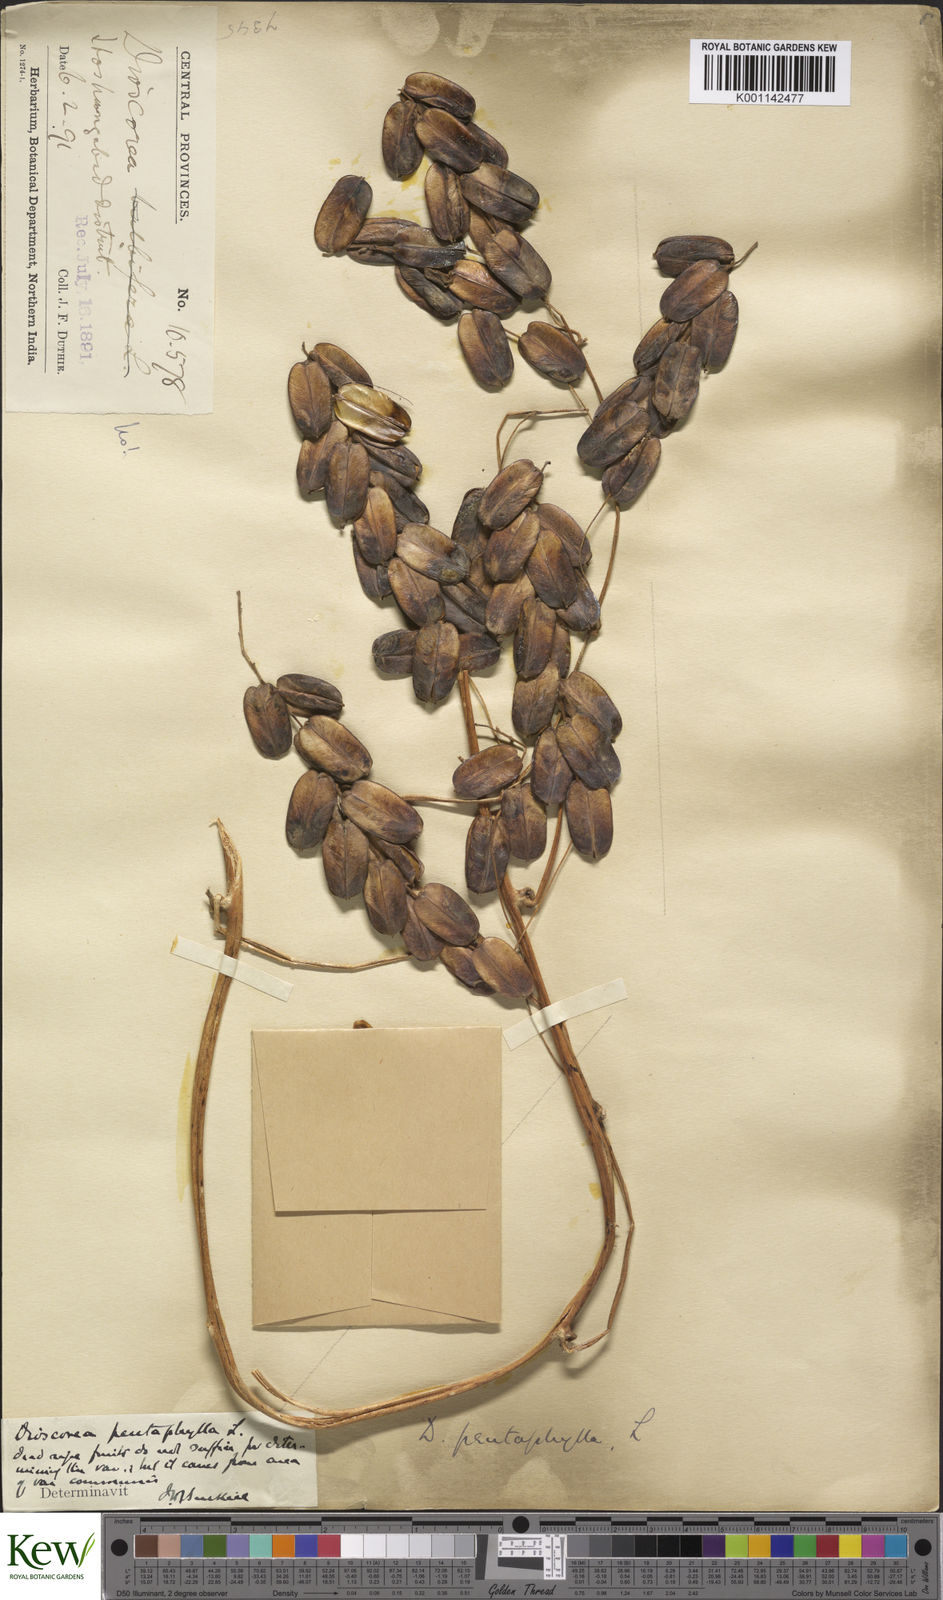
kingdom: Plantae
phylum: Tracheophyta
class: Liliopsida
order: Dioscoreales
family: Dioscoreaceae
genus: Dioscorea
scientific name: Dioscorea pentaphylla
